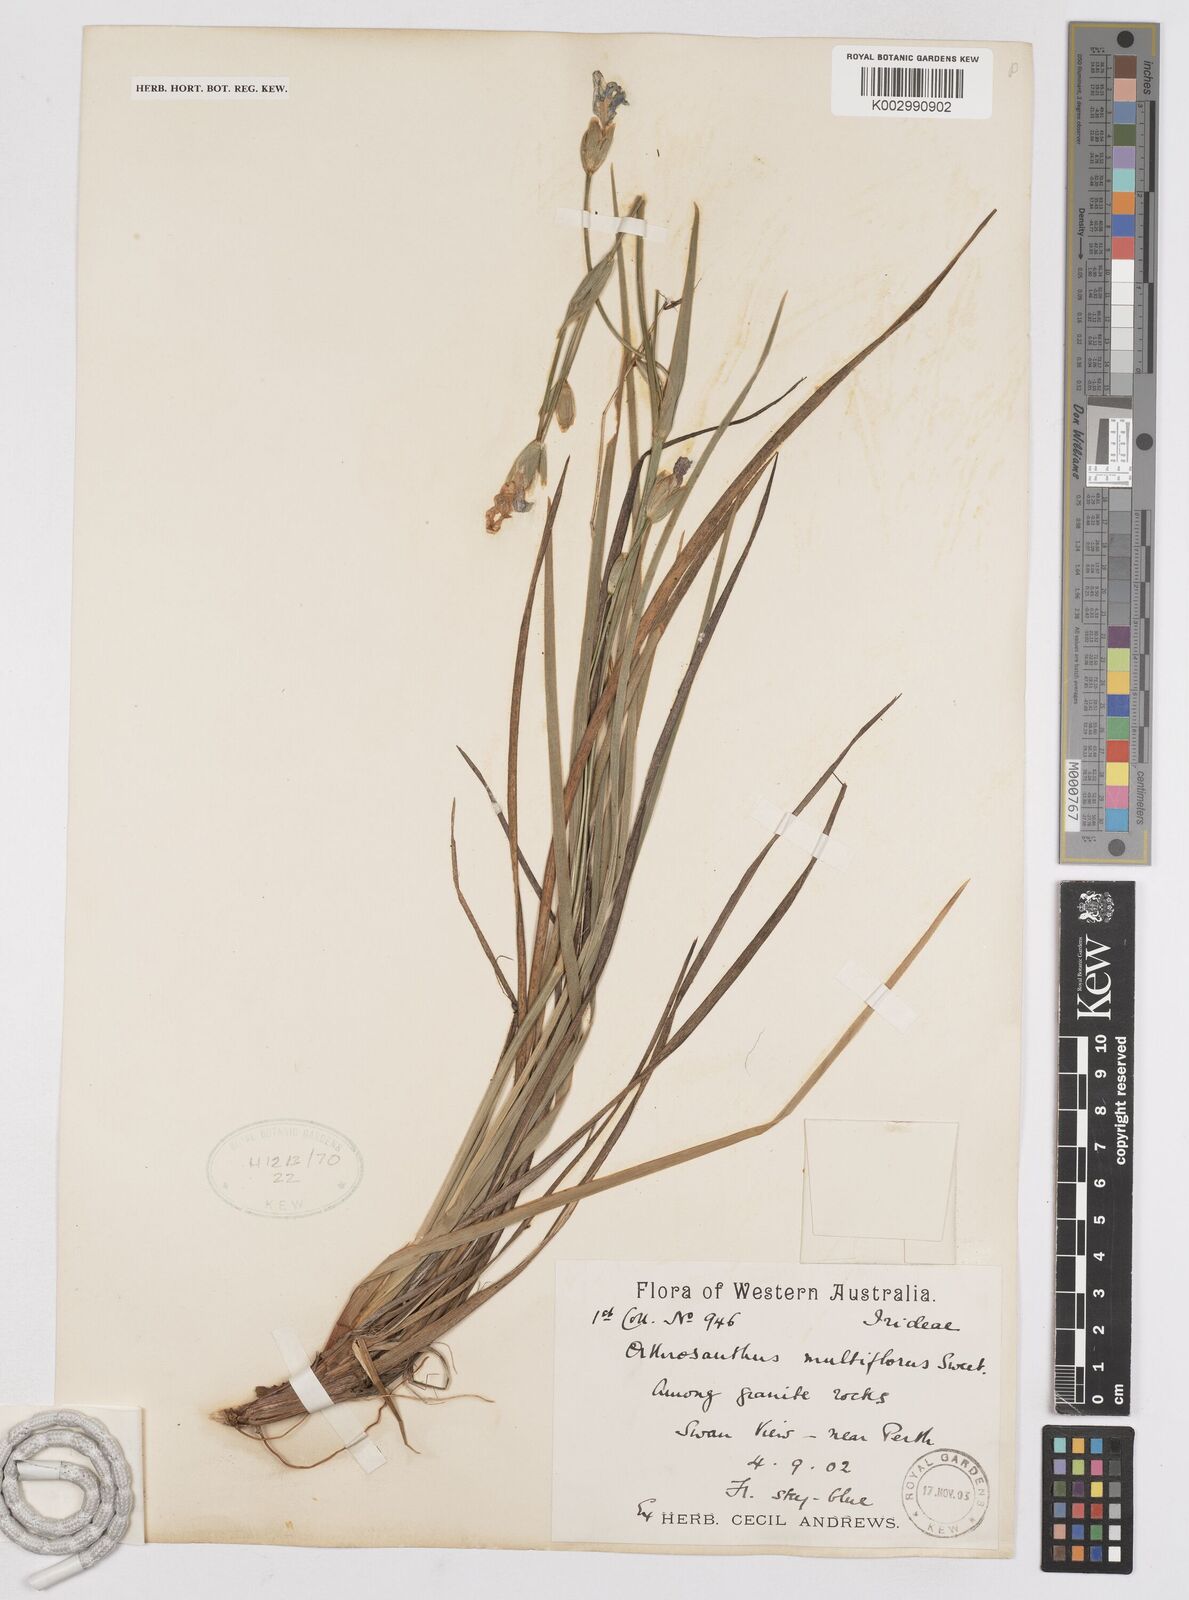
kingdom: Plantae
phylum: Tracheophyta
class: Liliopsida
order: Asparagales
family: Iridaceae
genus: Orthrosanthus
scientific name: Orthrosanthus laxus
